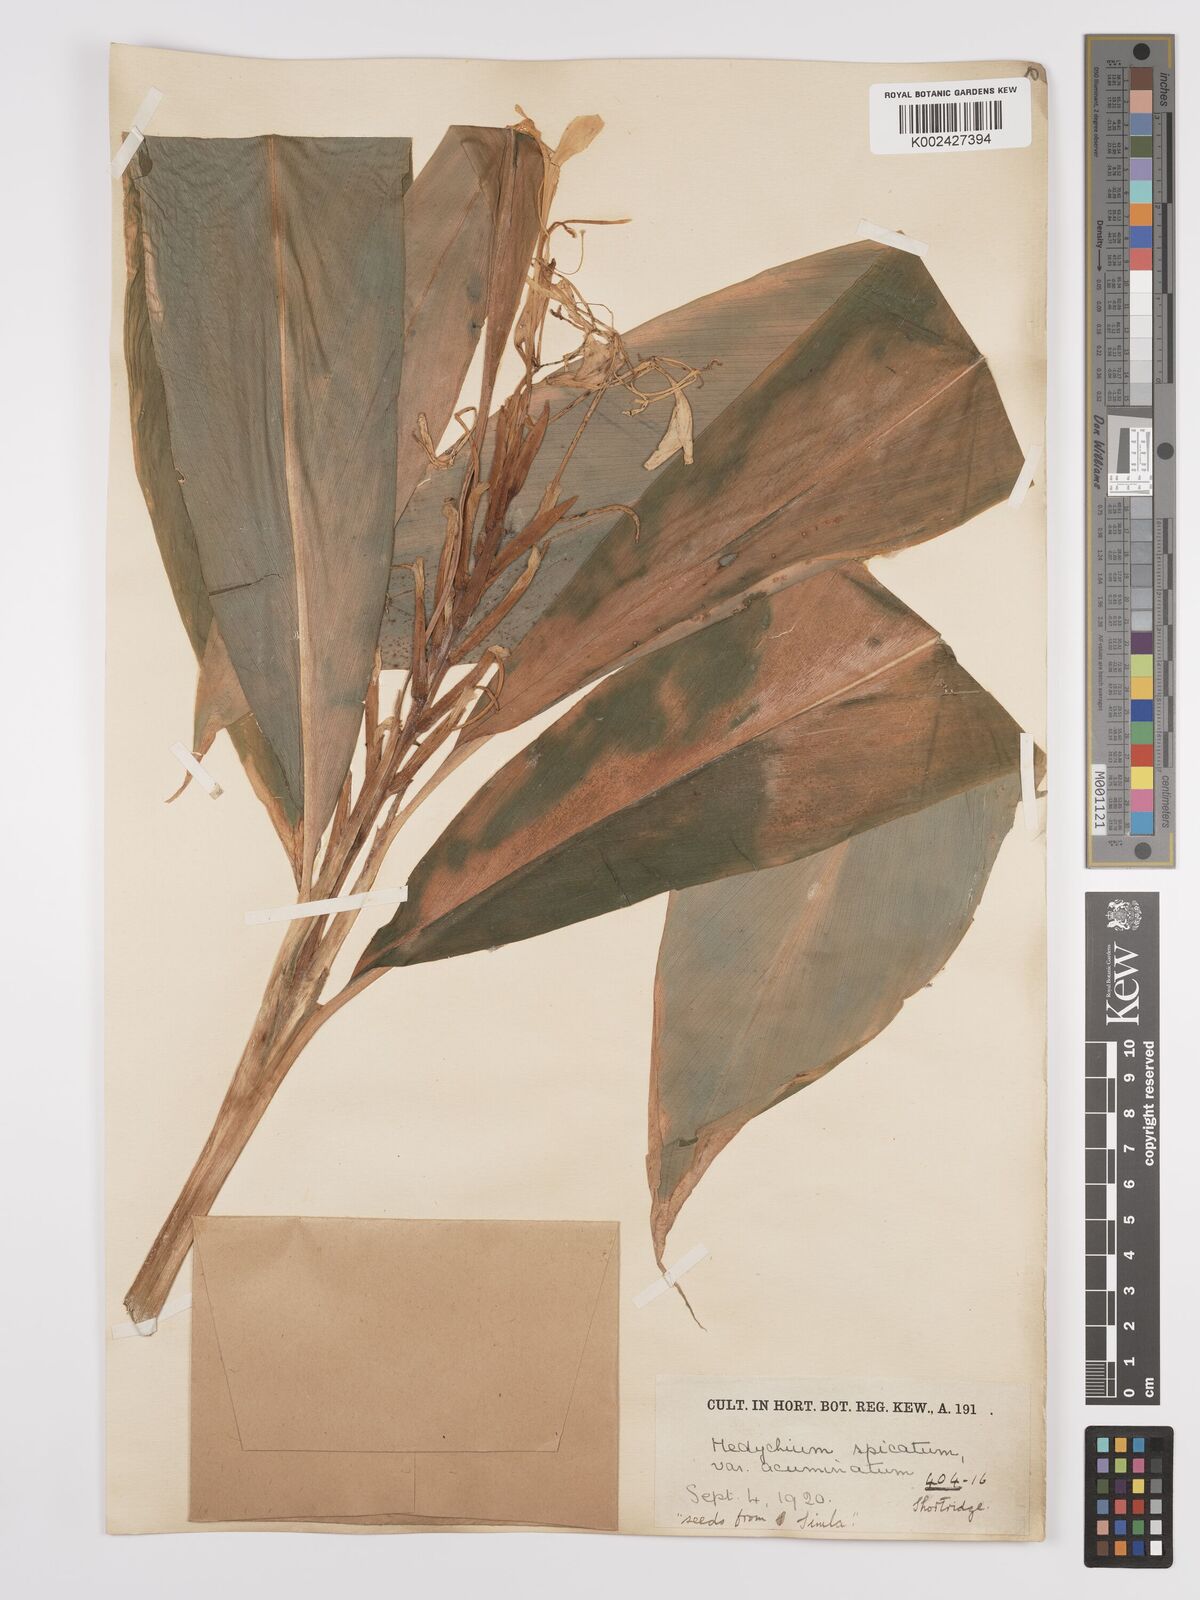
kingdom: Plantae
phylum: Tracheophyta
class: Liliopsida
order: Zingiberales
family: Zingiberaceae
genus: Hedychium
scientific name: Hedychium
